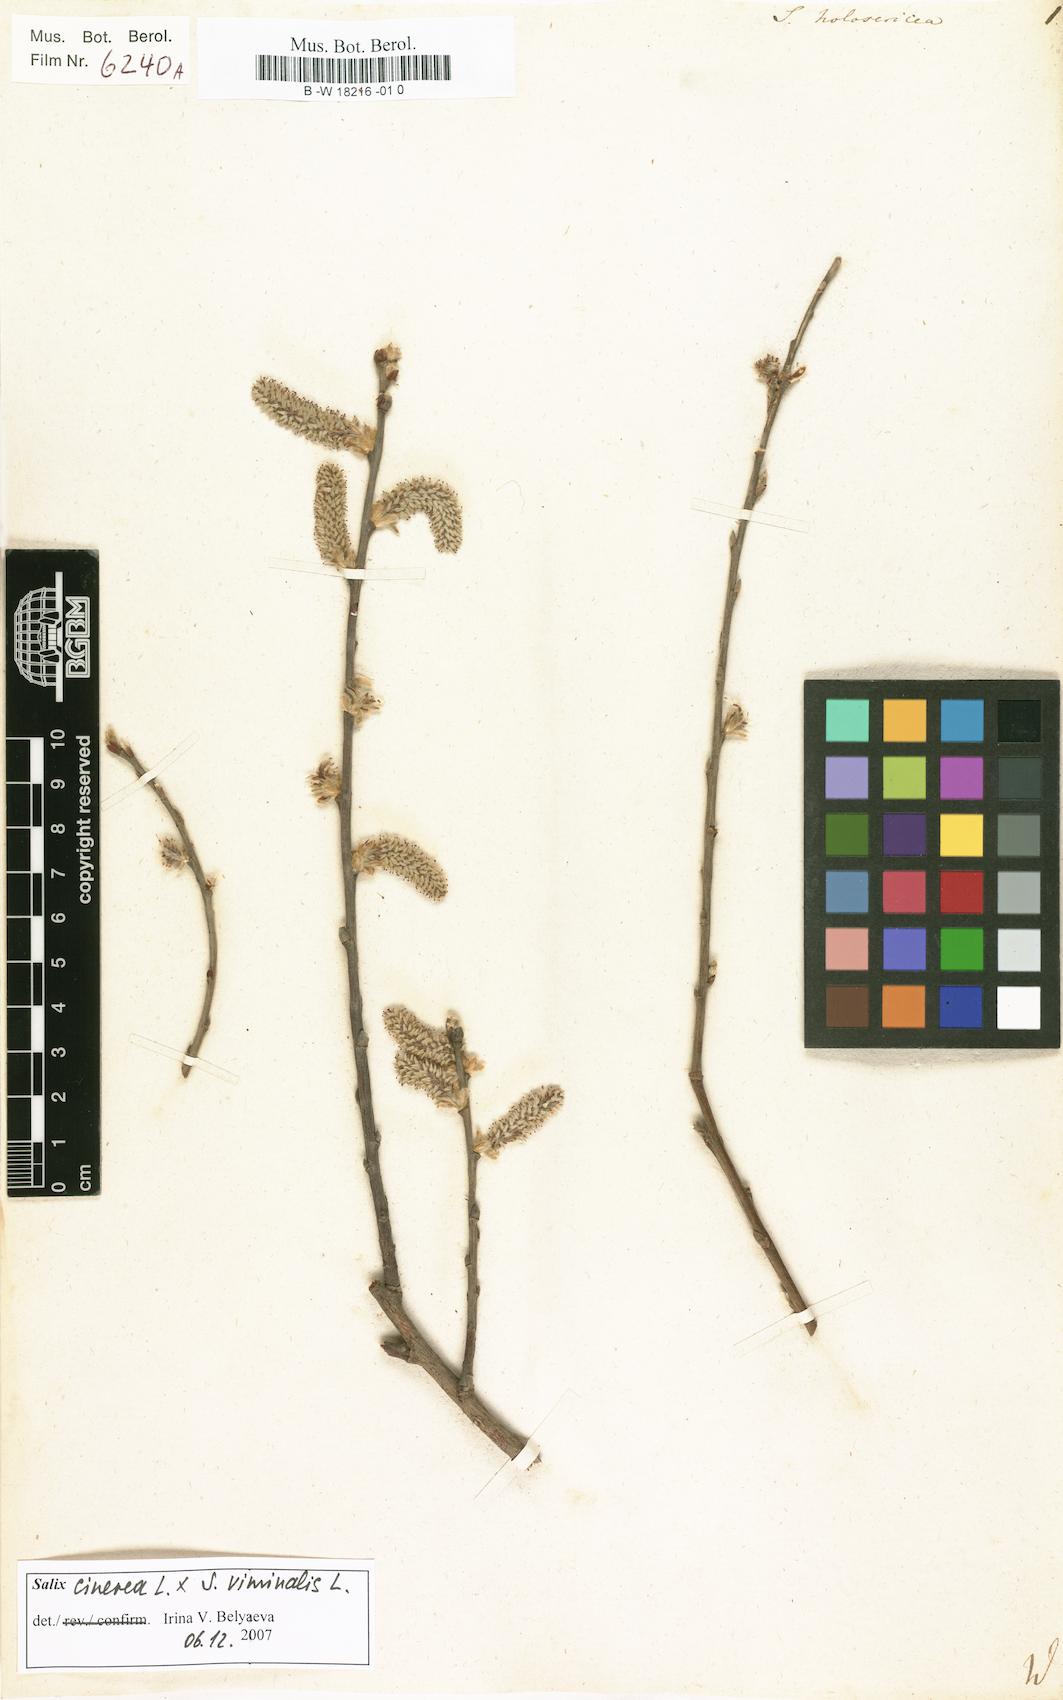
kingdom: Plantae
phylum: Tracheophyta
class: Magnoliopsida
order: Malpighiales
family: Salicaceae
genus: Salix
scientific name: Salix holosericea
